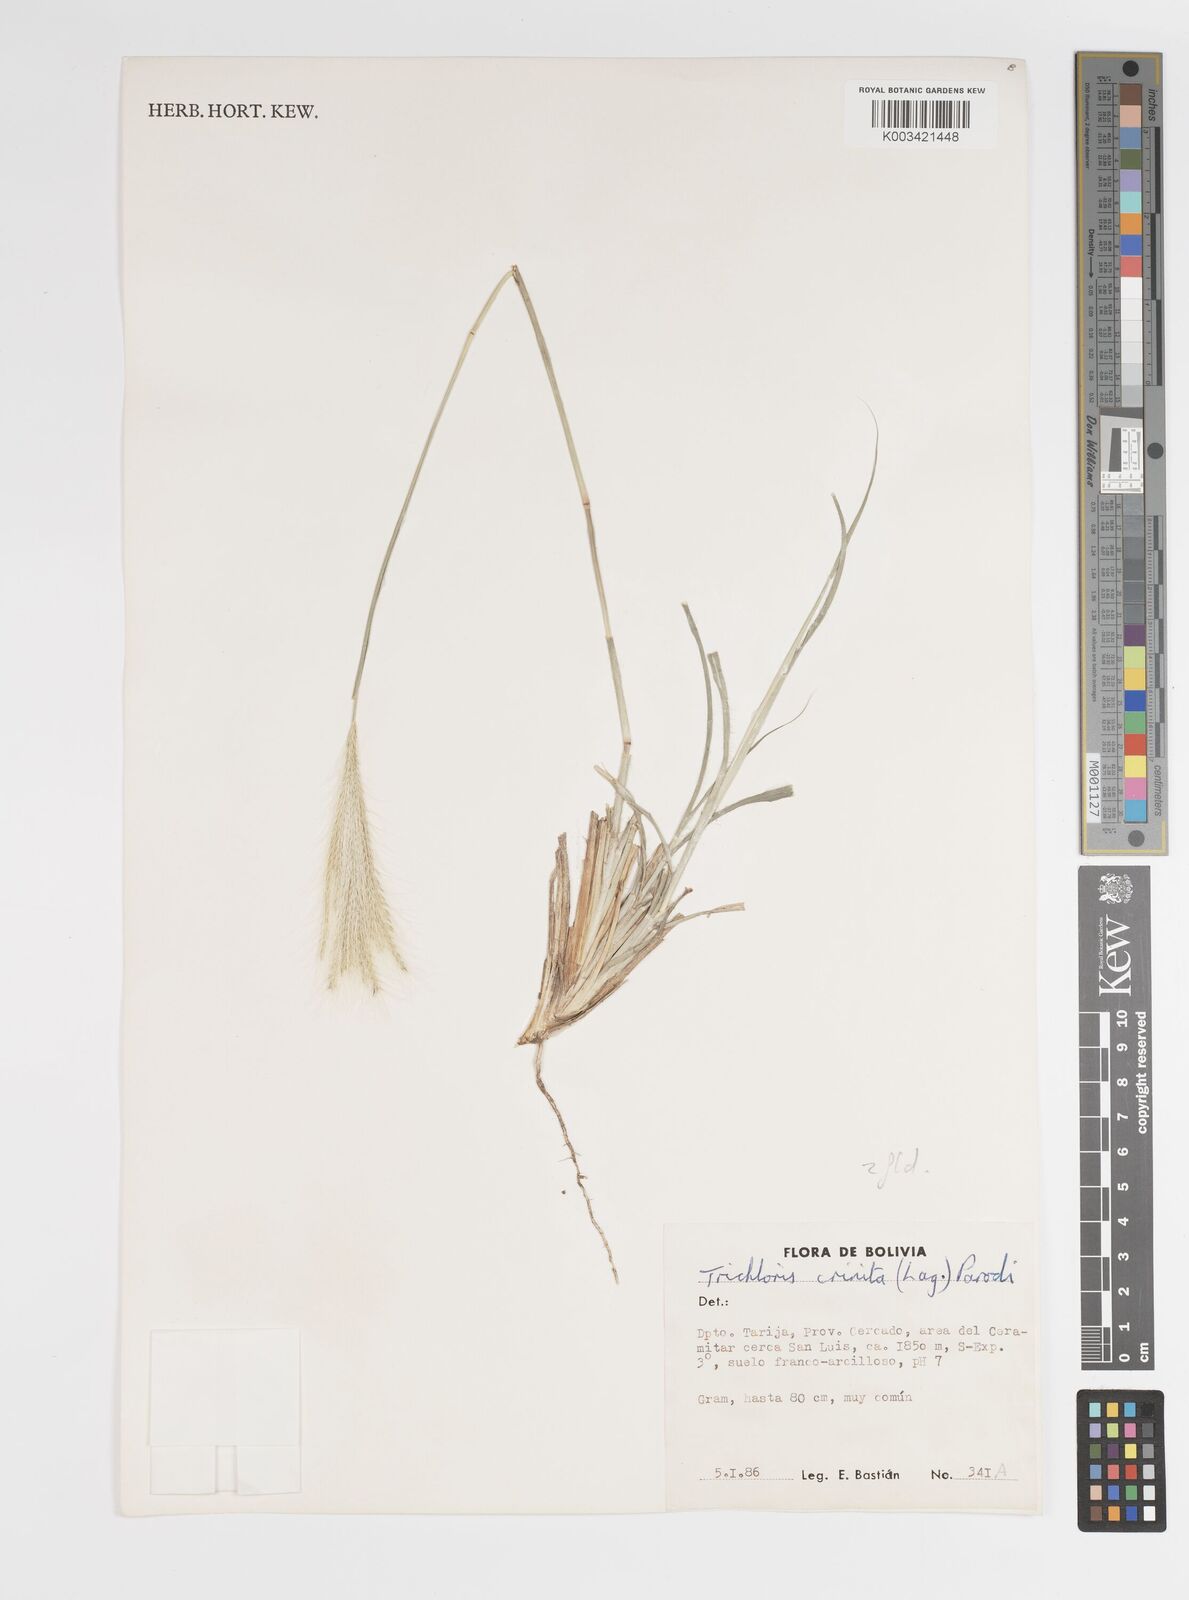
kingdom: Plantae
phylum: Tracheophyta
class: Liliopsida
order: Poales
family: Poaceae
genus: Leptochloa
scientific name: Leptochloa crinita
